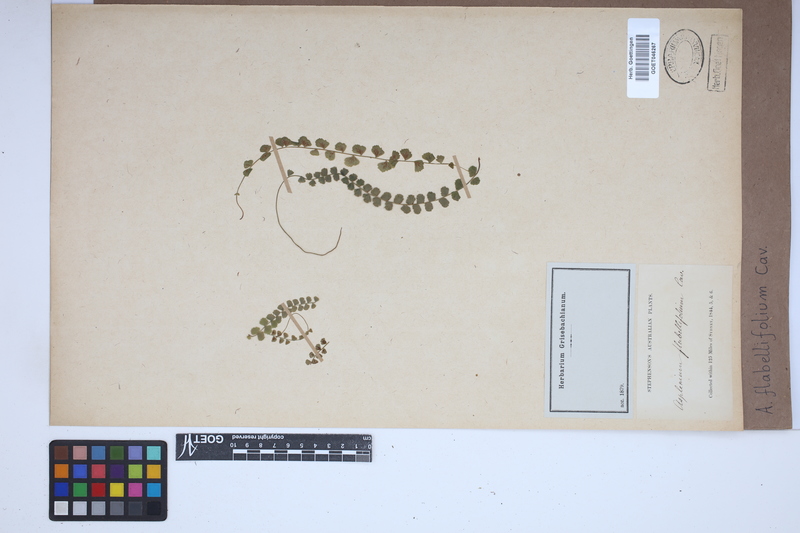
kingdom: Plantae
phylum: Tracheophyta
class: Polypodiopsida
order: Polypodiales
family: Aspleniaceae
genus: Asplenium
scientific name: Asplenium flabellifolium
